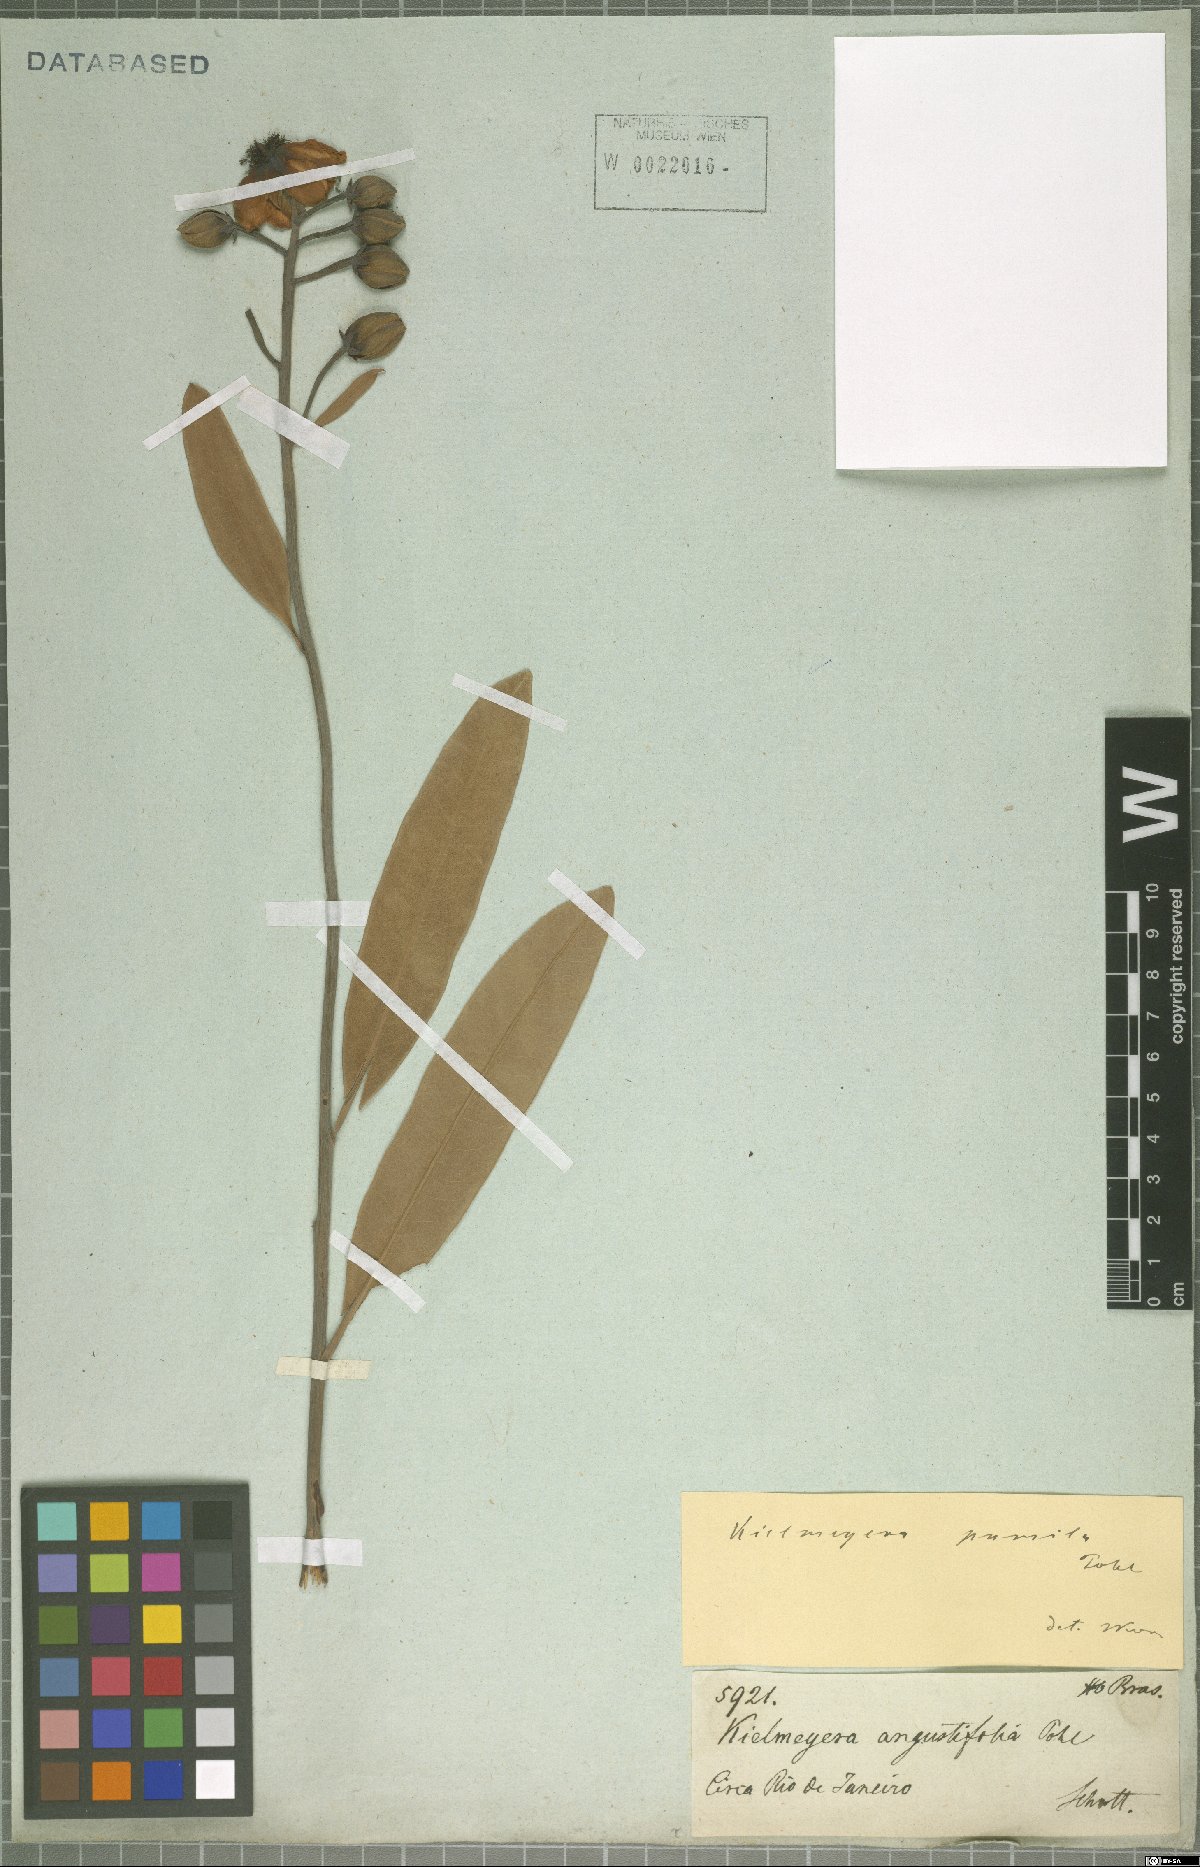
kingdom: Plantae
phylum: Tracheophyta
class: Magnoliopsida
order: Malpighiales
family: Calophyllaceae
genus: Kielmeyera
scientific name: Kielmeyera pumila
